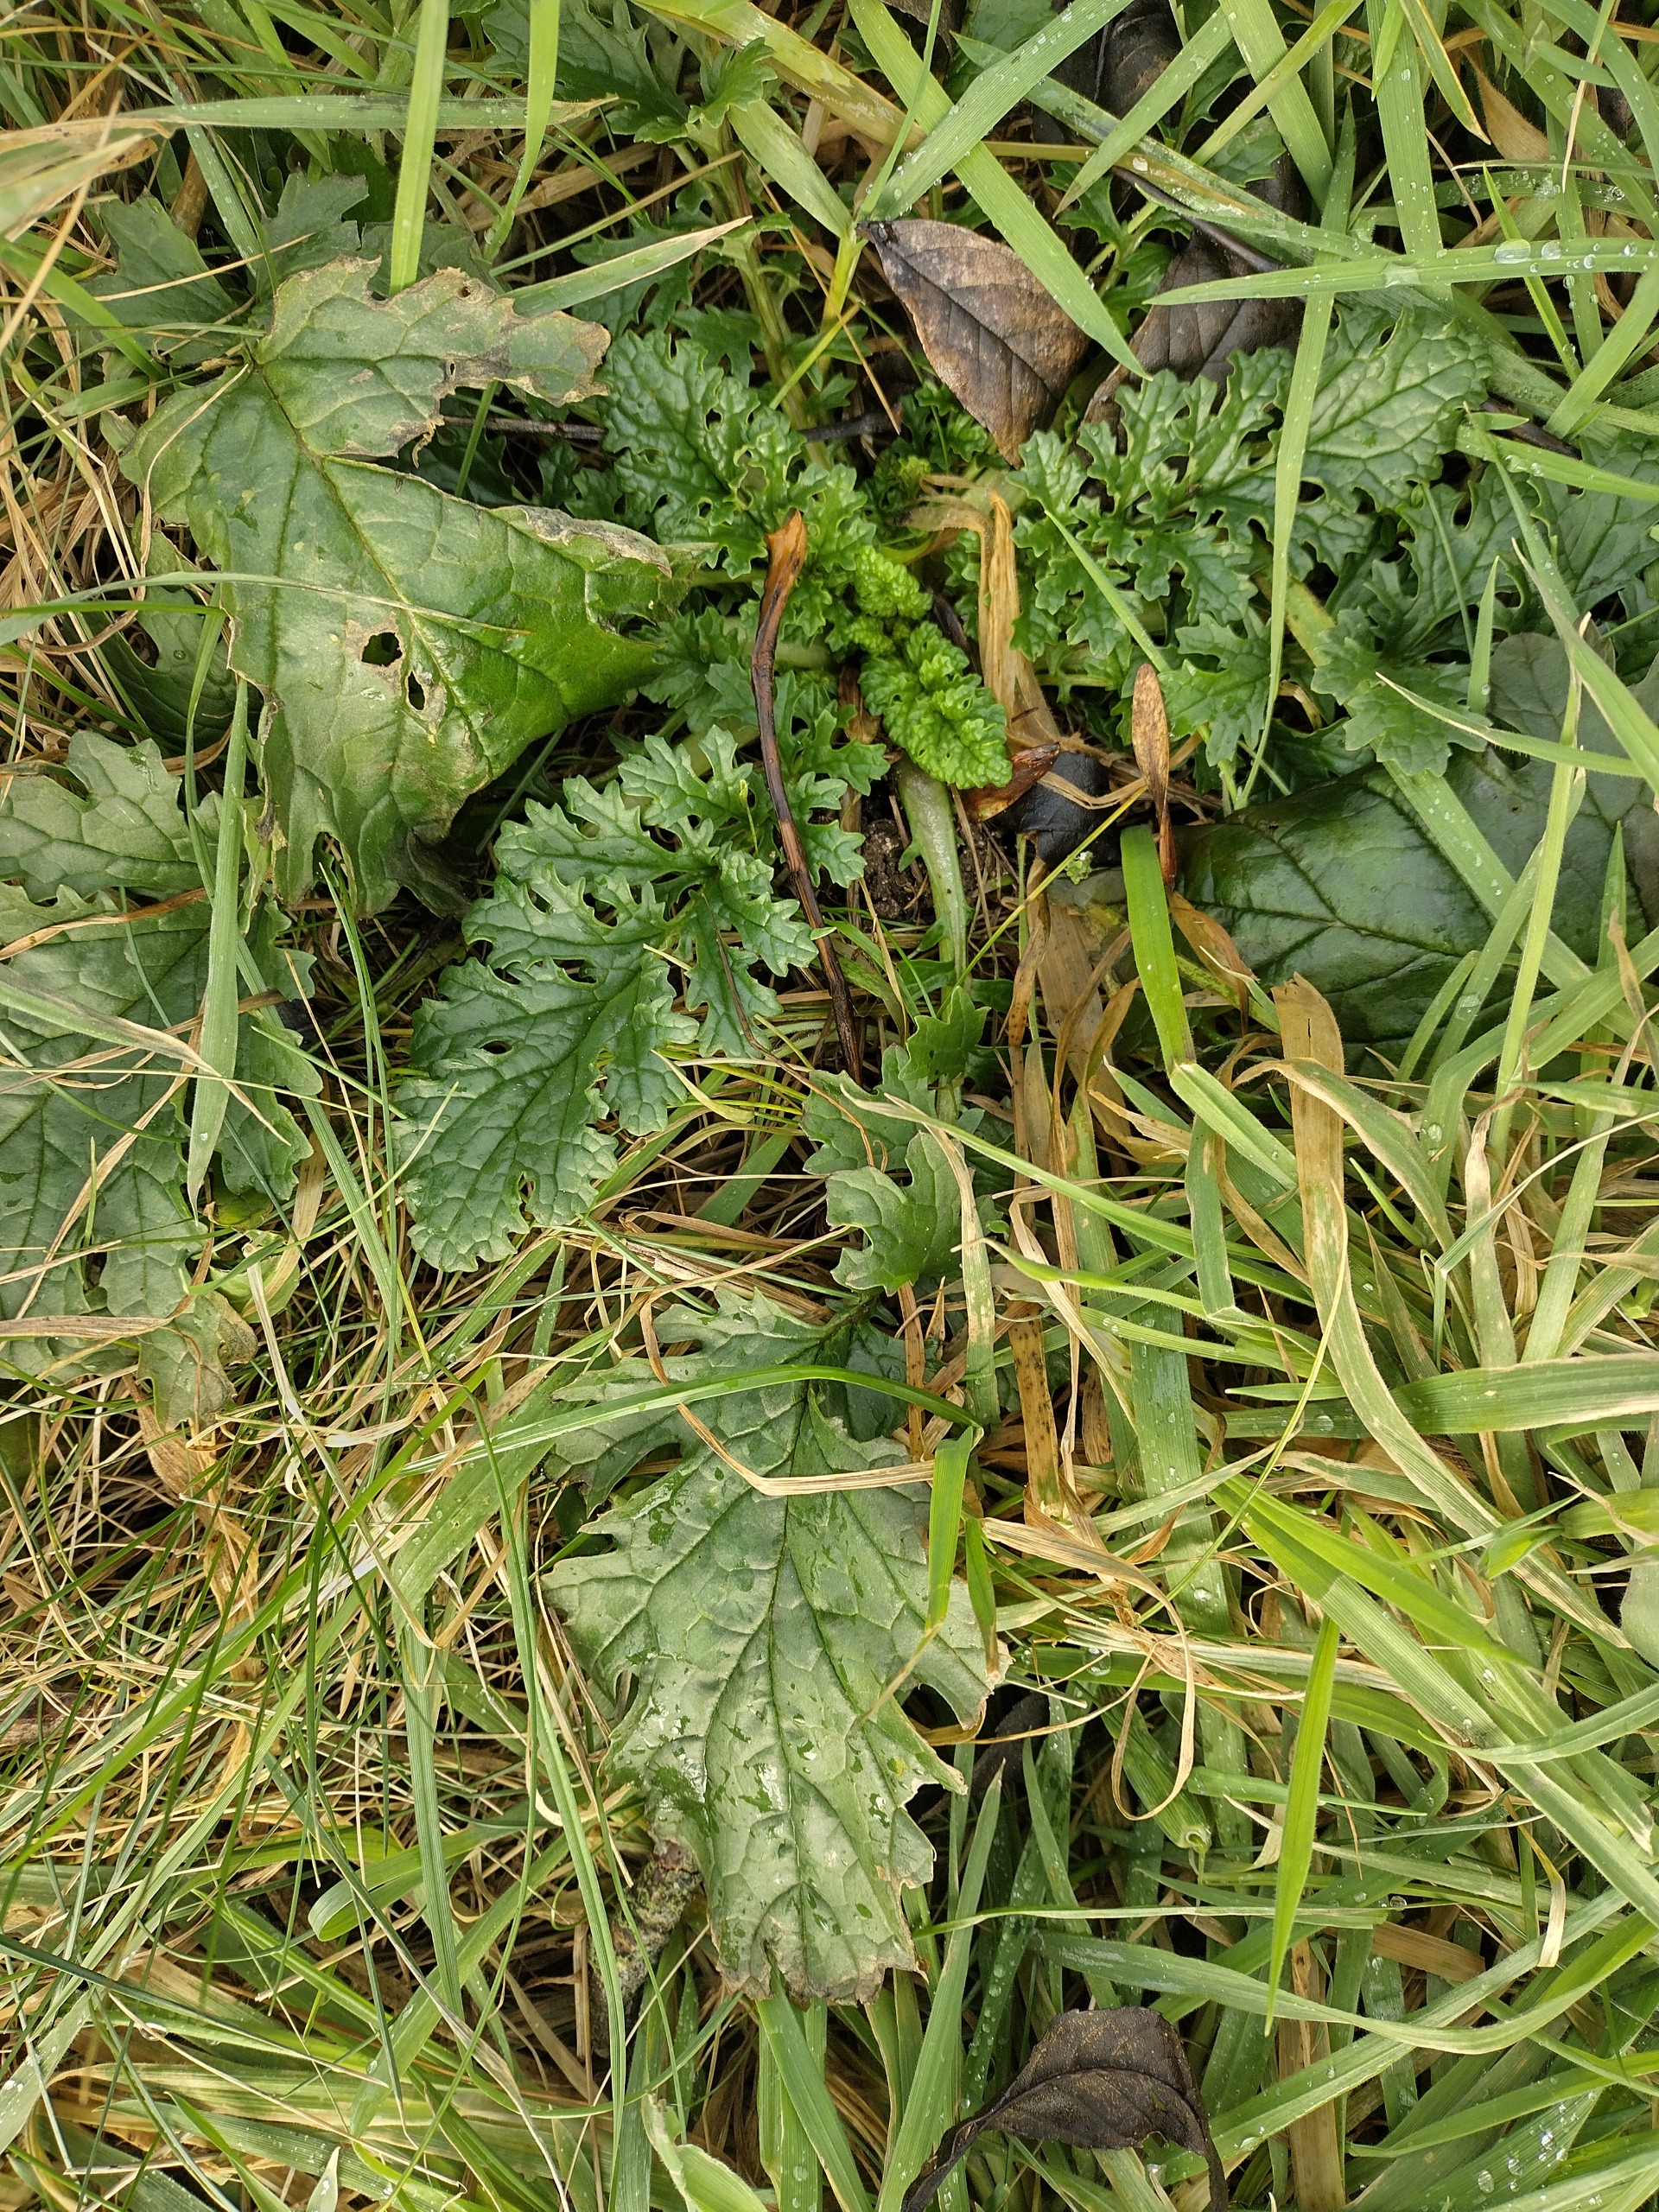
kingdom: Plantae
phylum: Tracheophyta
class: Magnoliopsida
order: Asterales
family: Asteraceae
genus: Jacobaea
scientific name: Jacobaea vulgaris
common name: Eng-brandbæger
